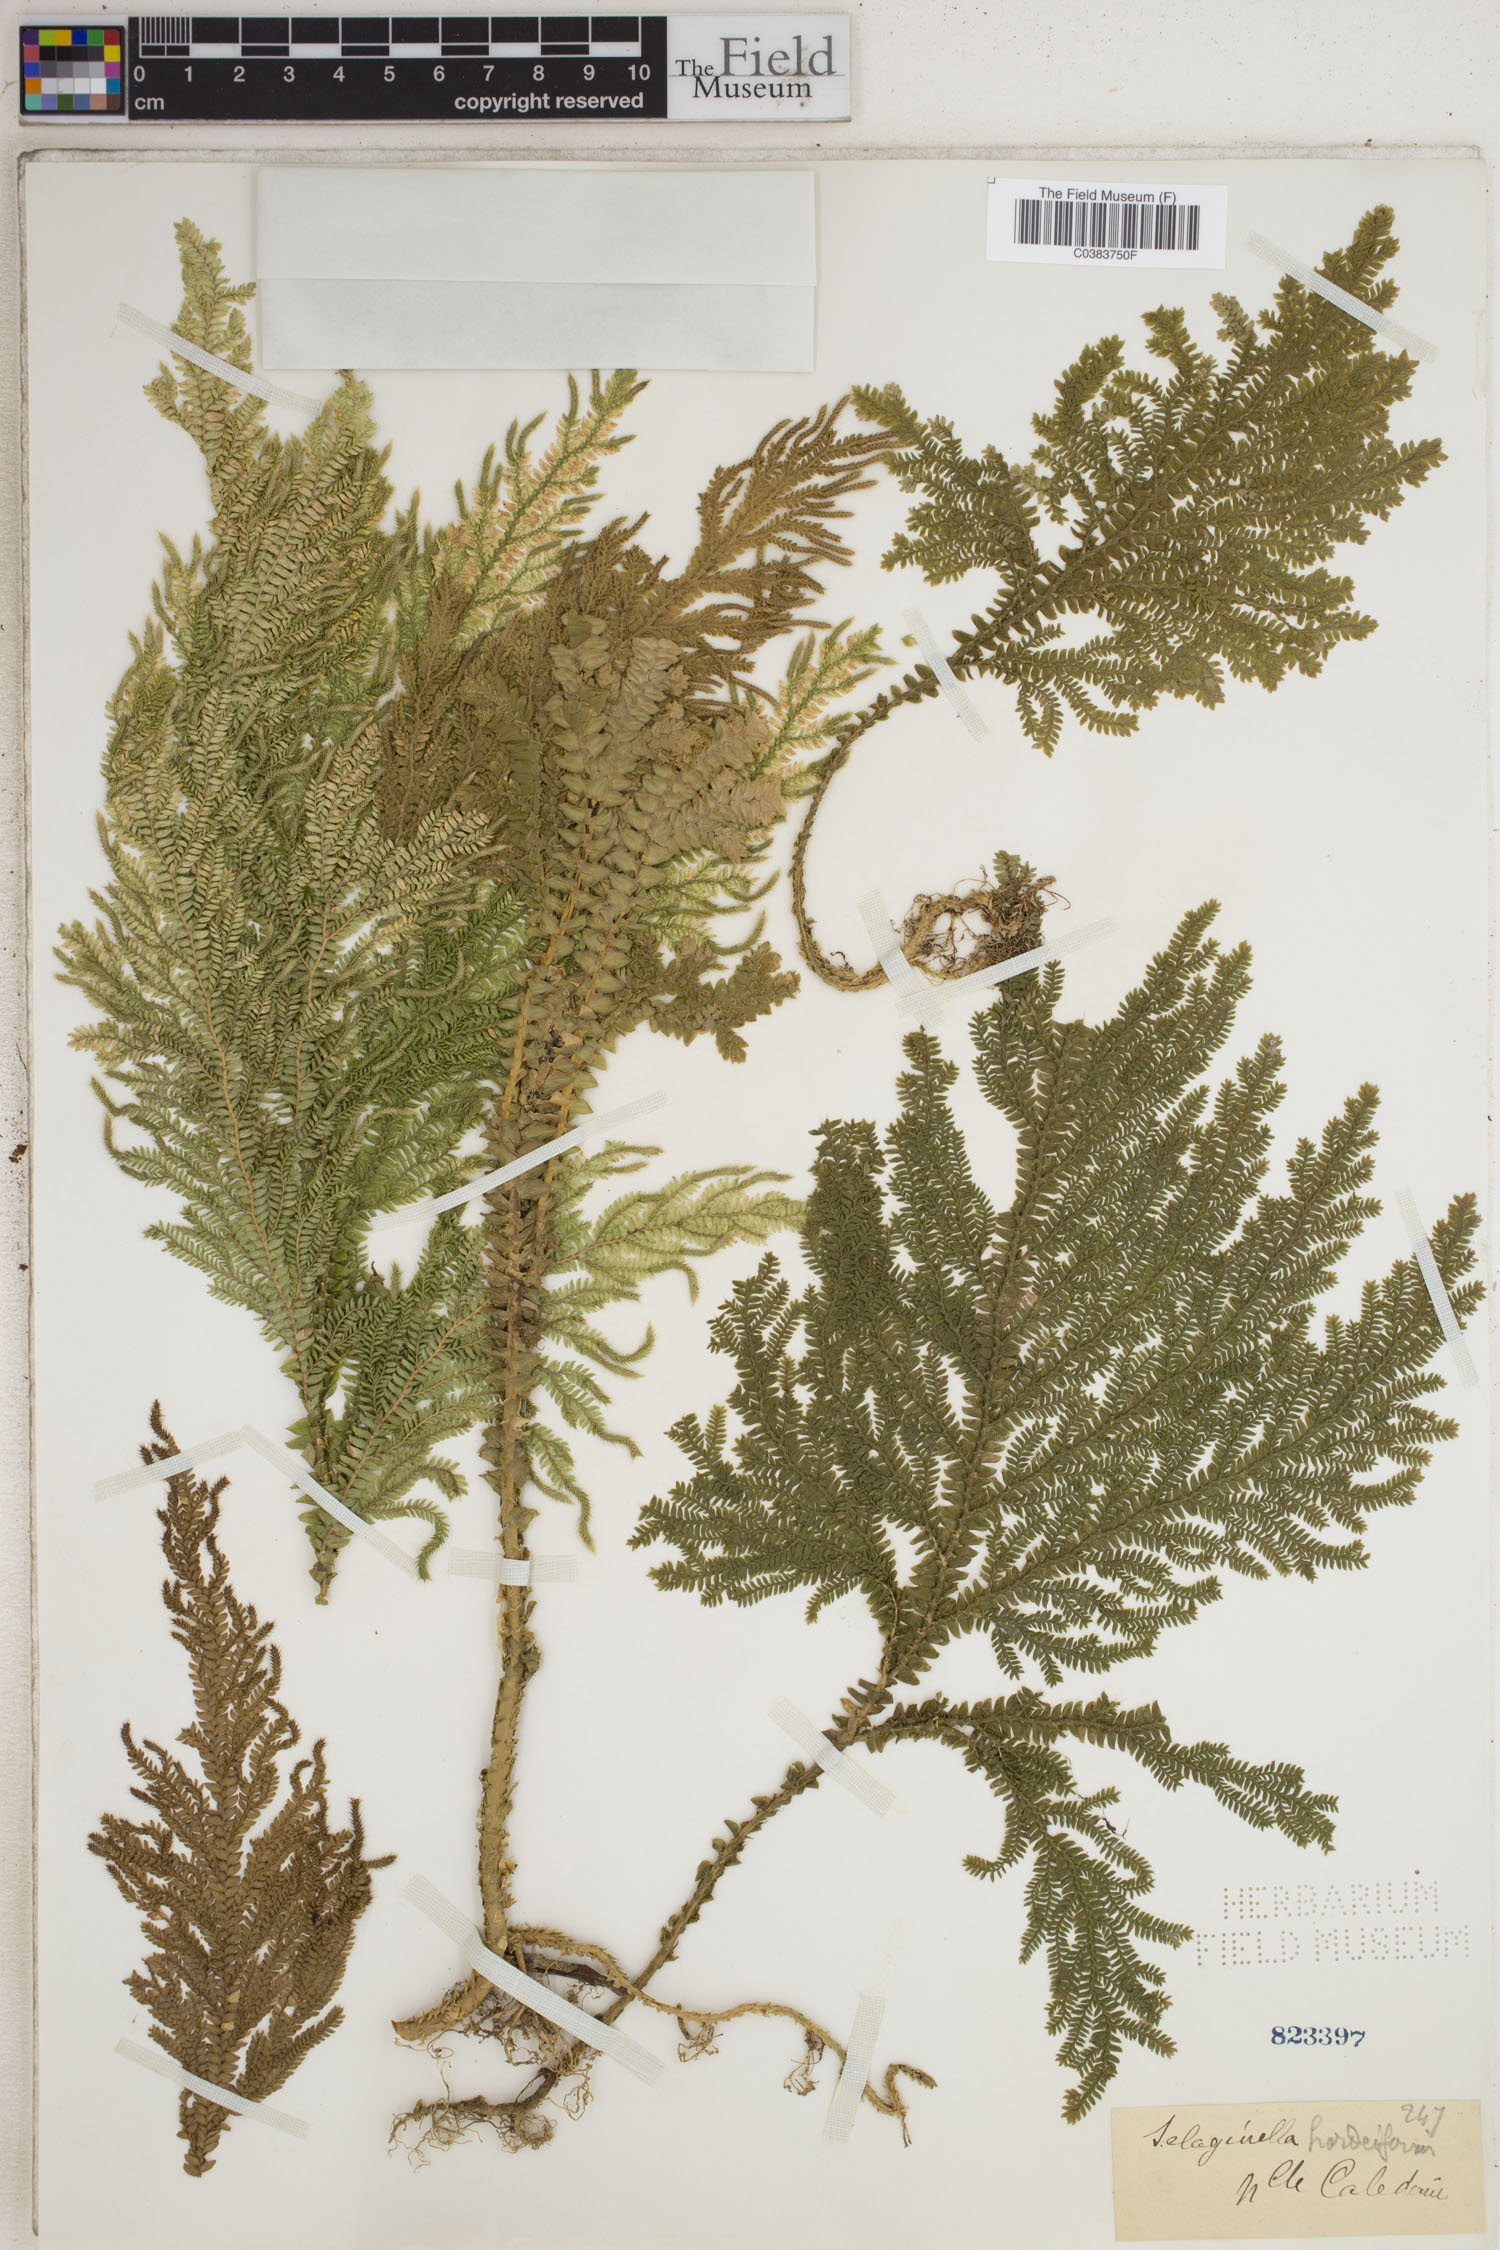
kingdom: Plantae
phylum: Tracheophyta
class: Lycopodiopsida
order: Selaginellales
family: Selaginellaceae
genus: Selaginella
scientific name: Selaginella hordeiformis
